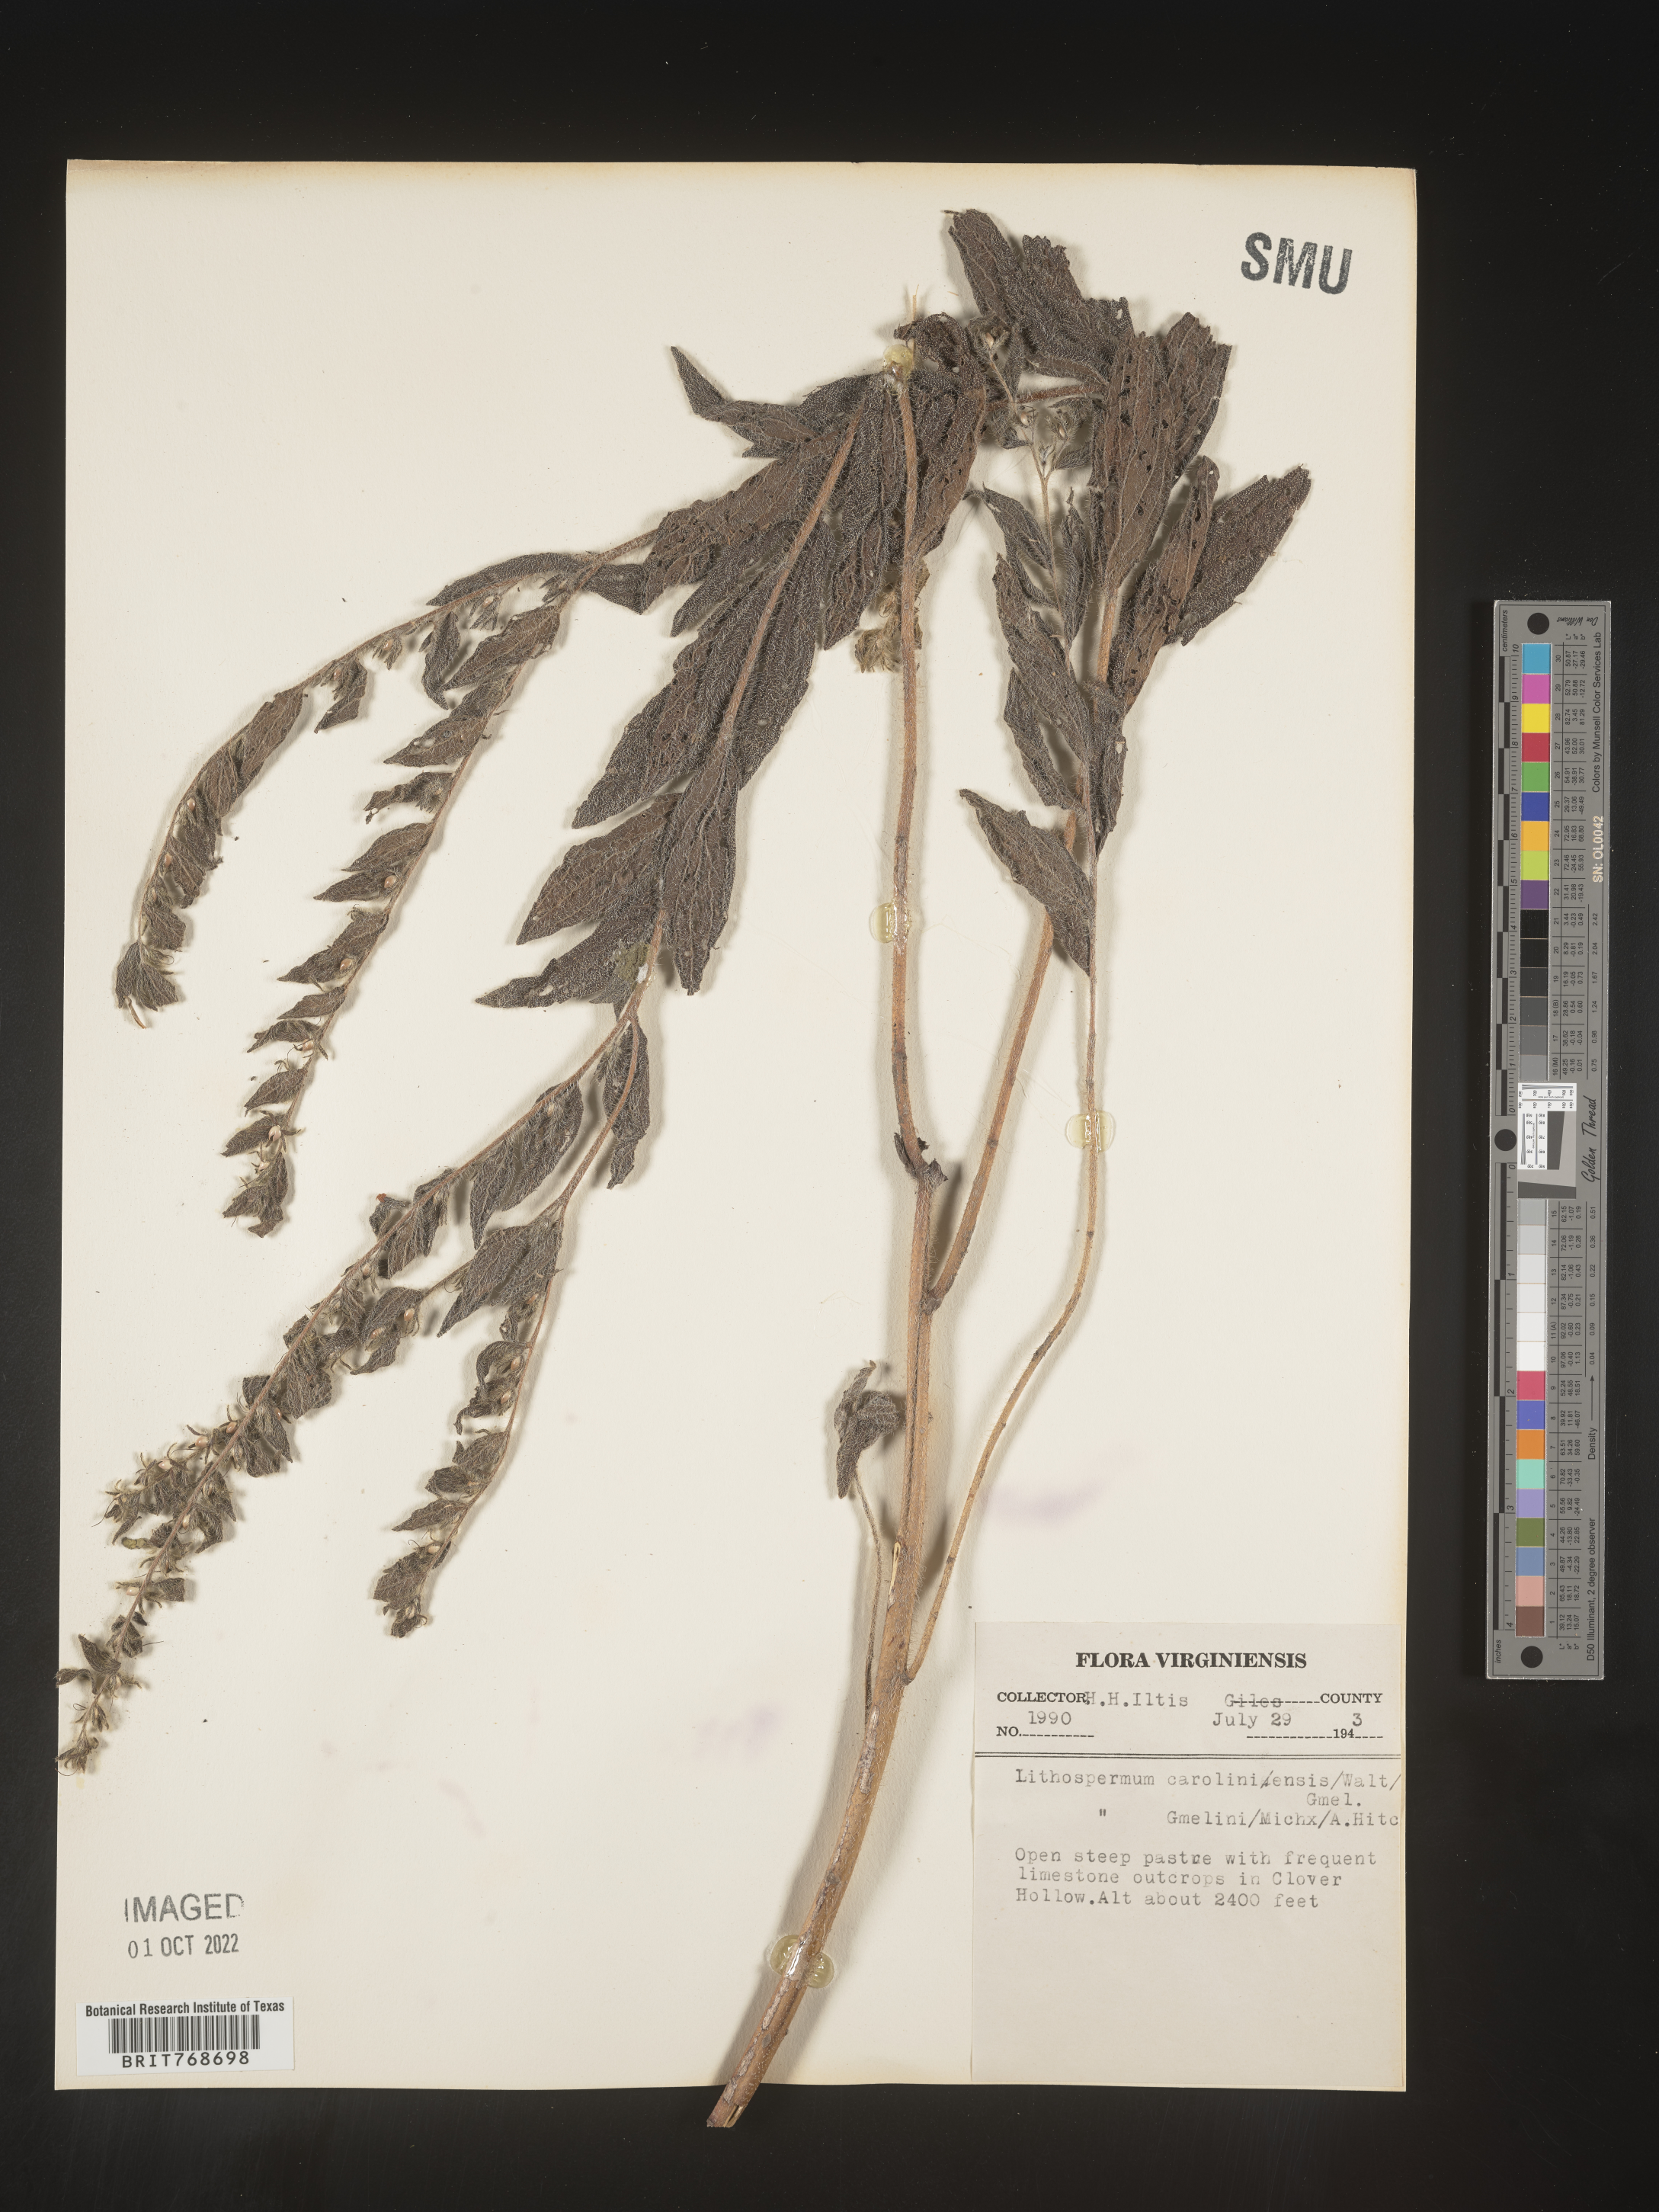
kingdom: Plantae
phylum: Tracheophyta
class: Magnoliopsida
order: Boraginales
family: Boraginaceae
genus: Lithospermum
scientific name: Lithospermum caroliniense
